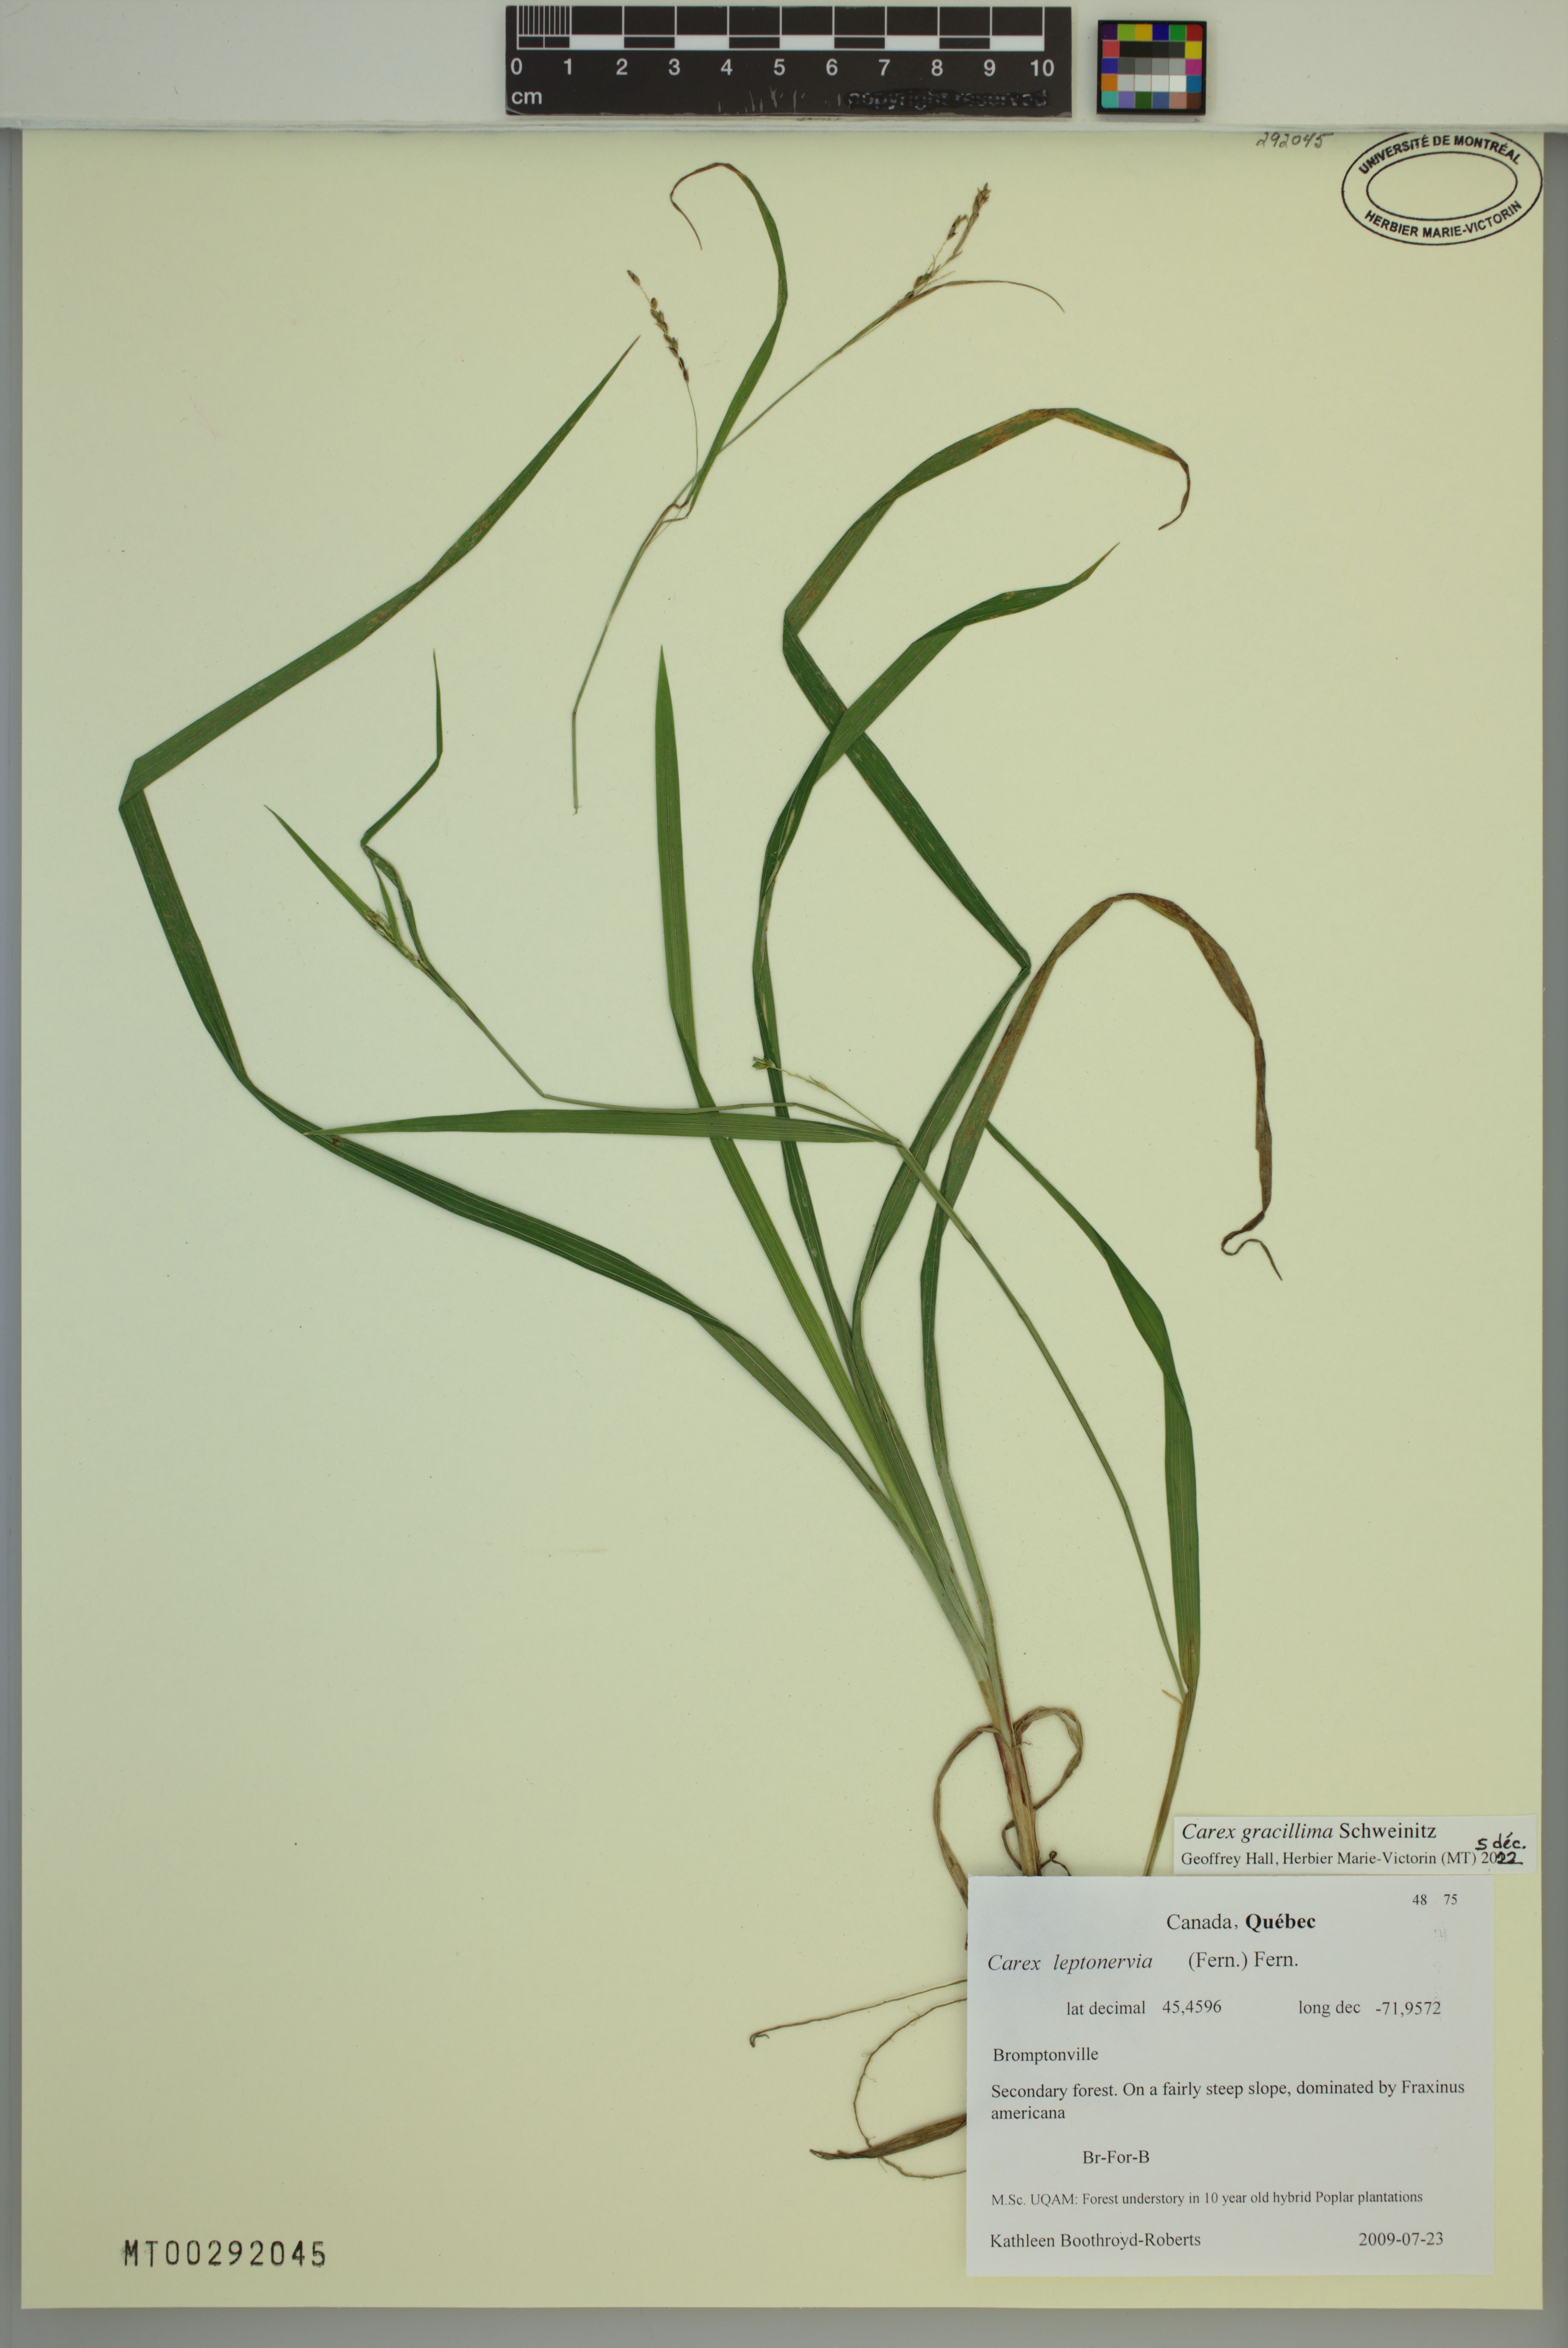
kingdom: Plantae
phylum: Tracheophyta
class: Liliopsida
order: Poales
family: Cyperaceae
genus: Carex
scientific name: Carex gracillima
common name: Graceful sedge
